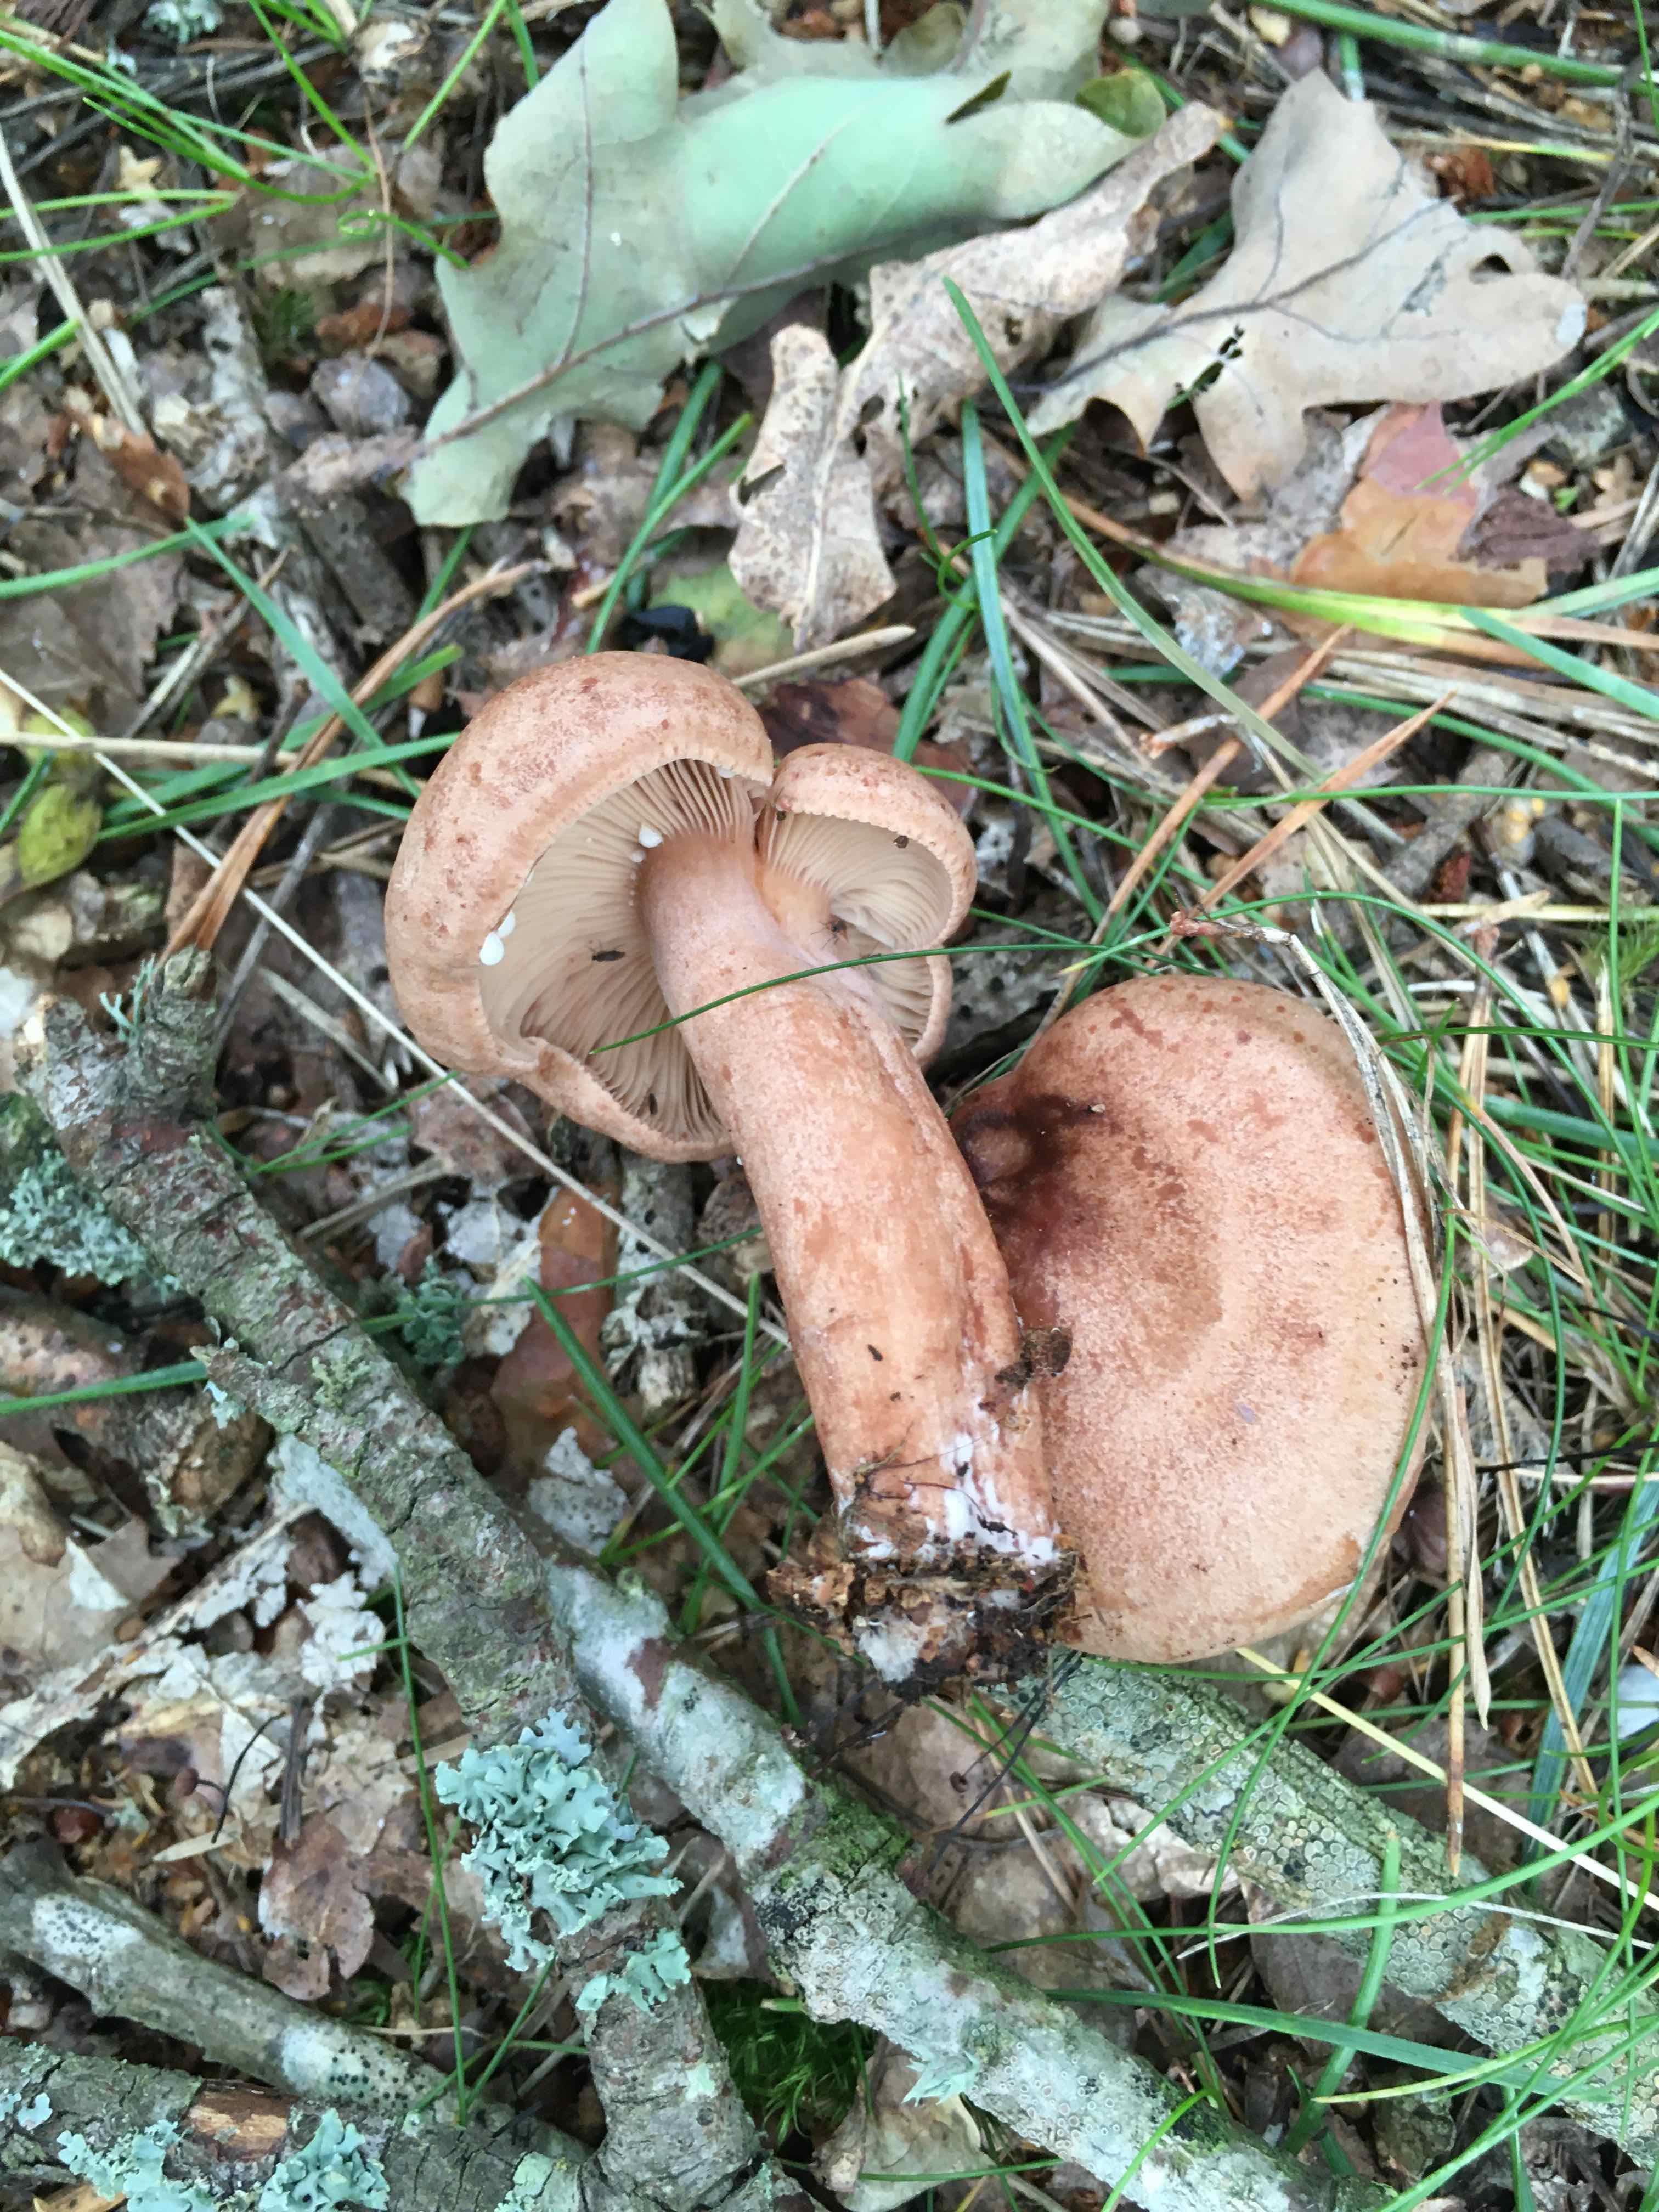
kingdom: Fungi
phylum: Basidiomycota
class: Agaricomycetes
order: Russulales
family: Russulaceae
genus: Lactarius
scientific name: Lactarius quietus
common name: ege-mælkehat
